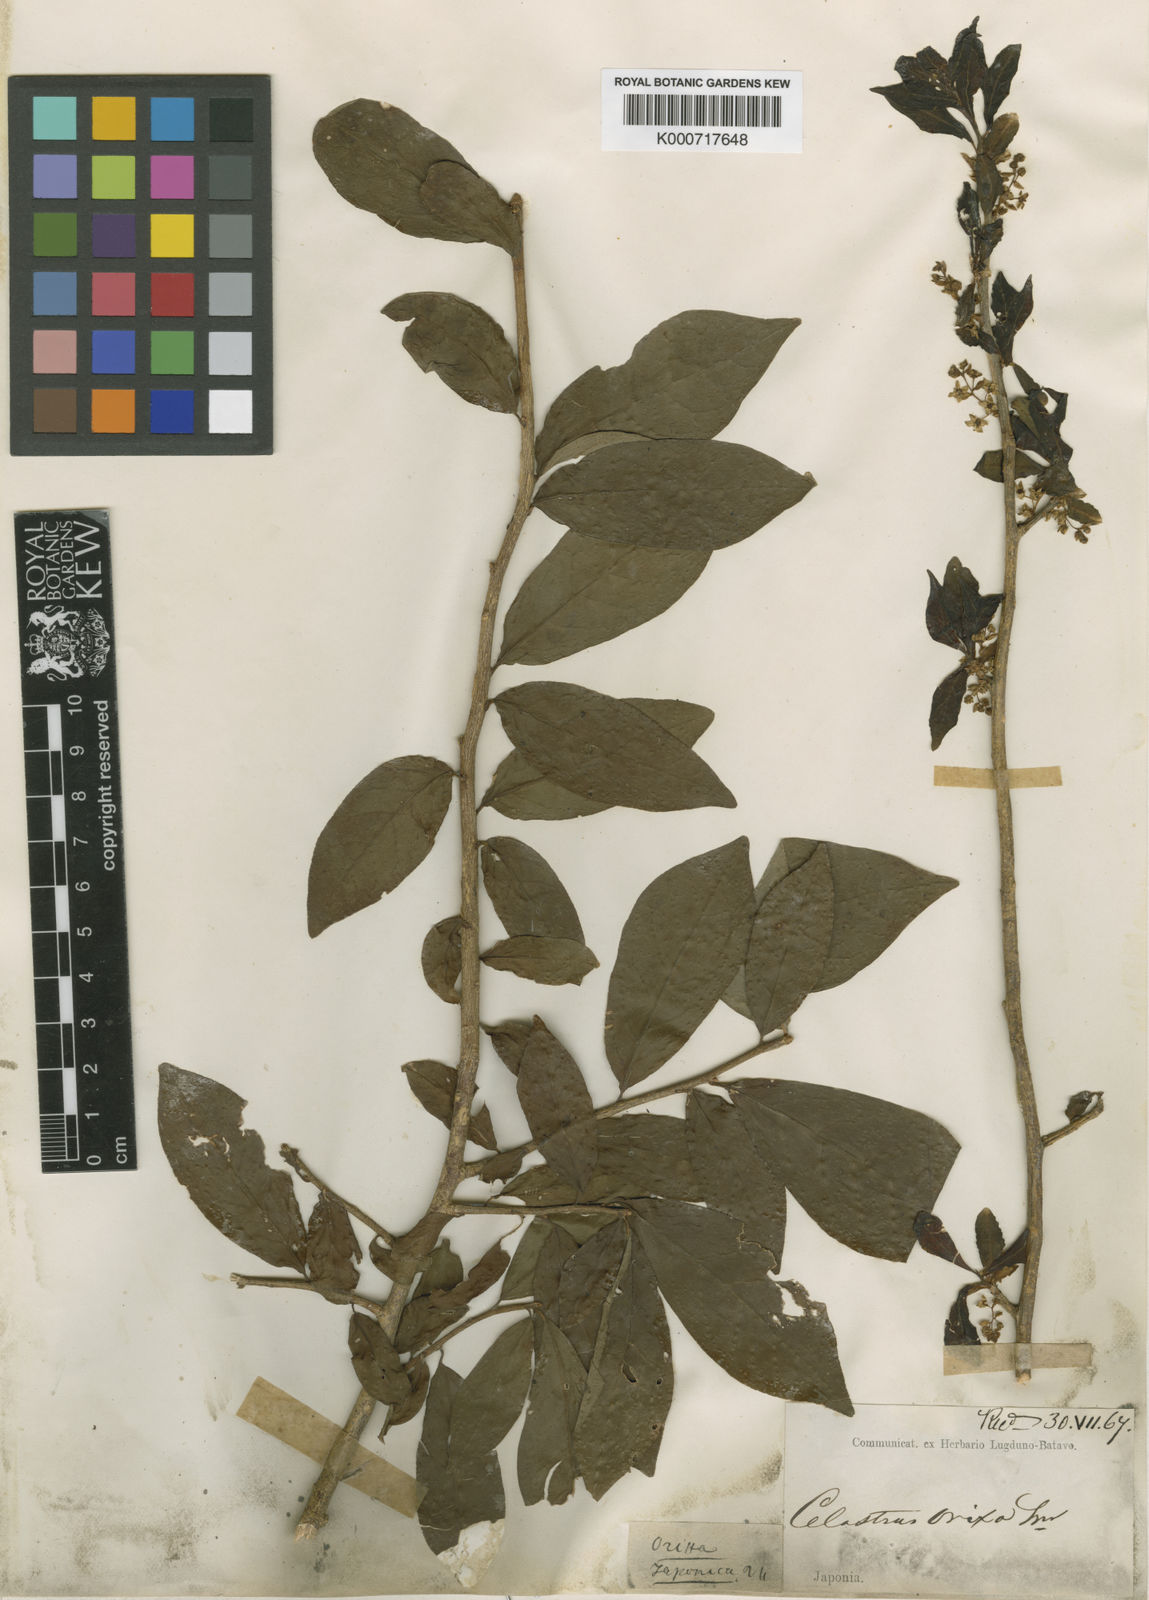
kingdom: Plantae
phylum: Tracheophyta
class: Magnoliopsida
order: Sapindales
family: Rutaceae
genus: Orixa
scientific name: Orixa japonica
